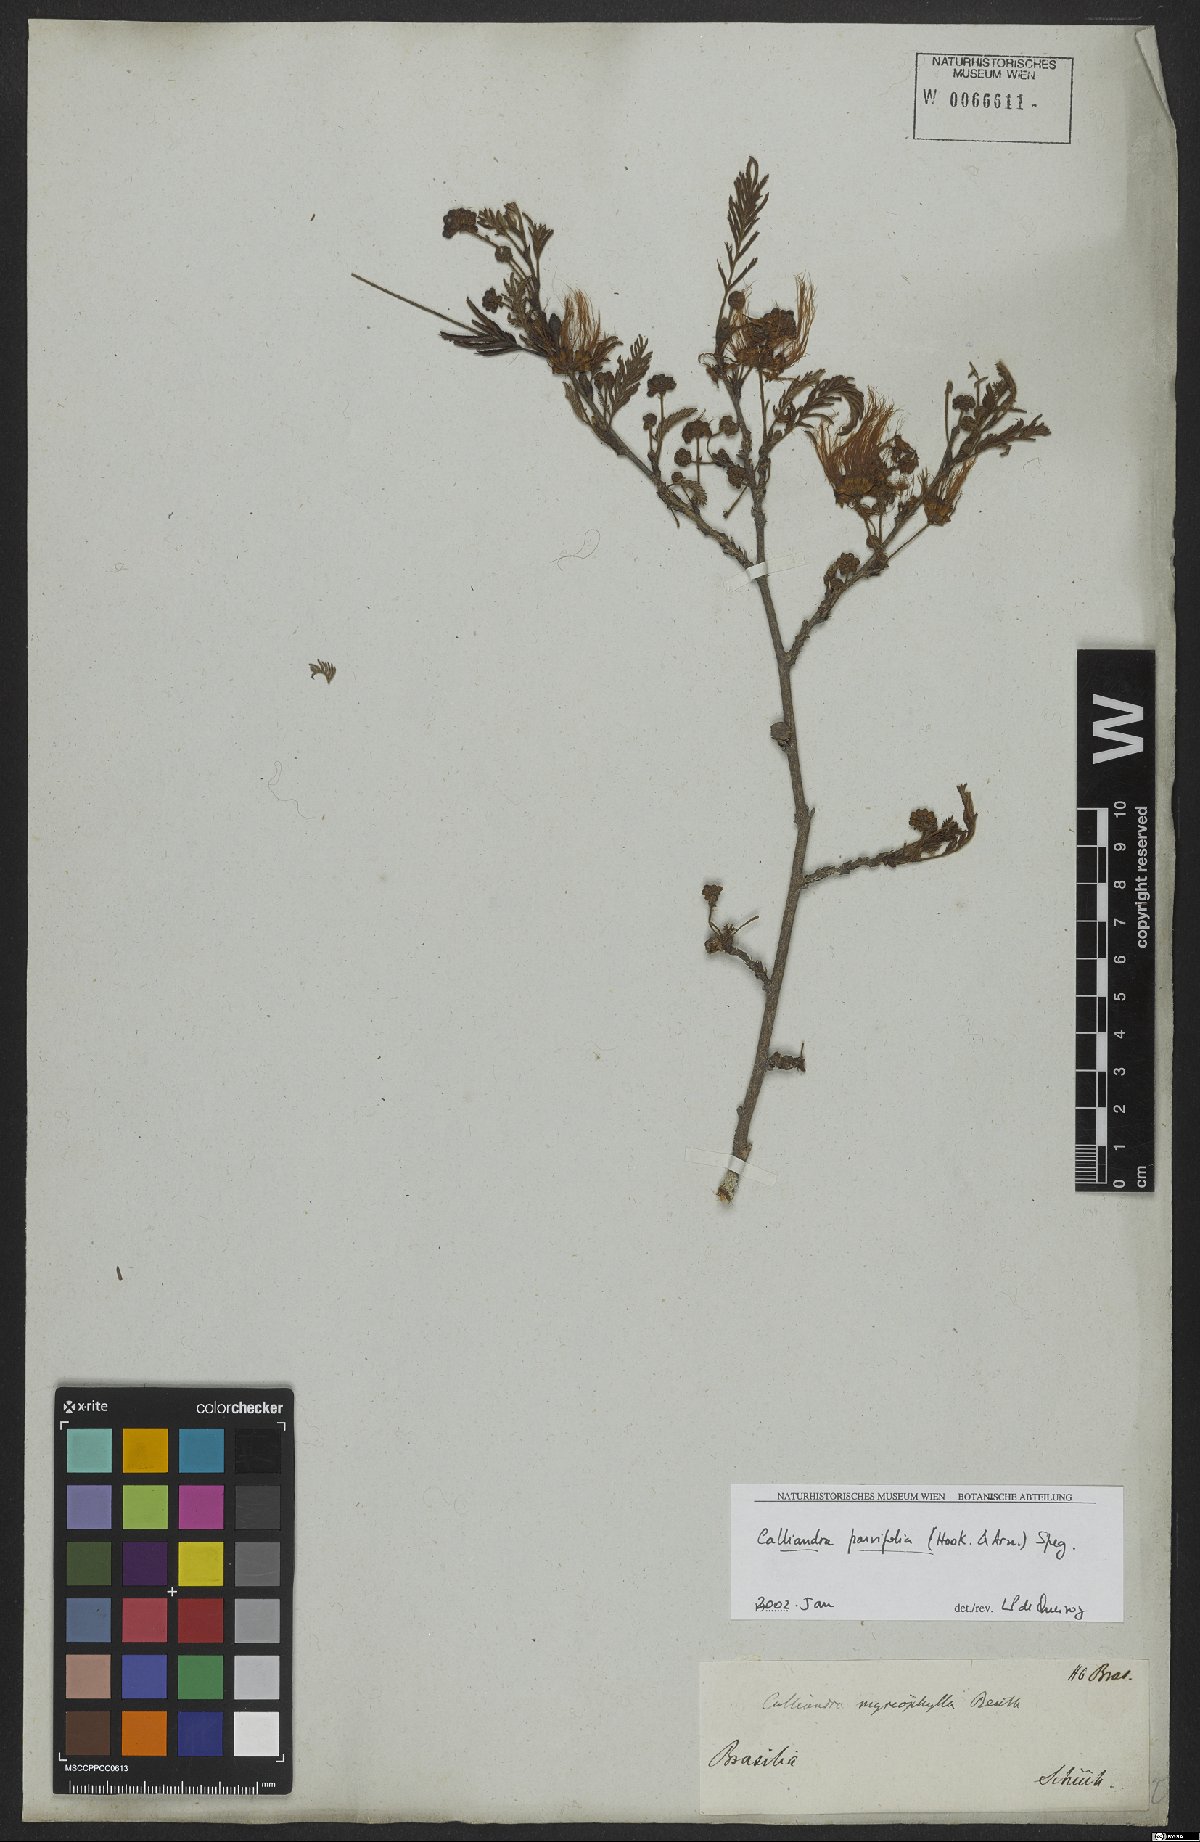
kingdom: Plantae
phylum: Tracheophyta
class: Magnoliopsida
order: Fabales
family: Fabaceae
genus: Calliandra
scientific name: Calliandra parviflora
